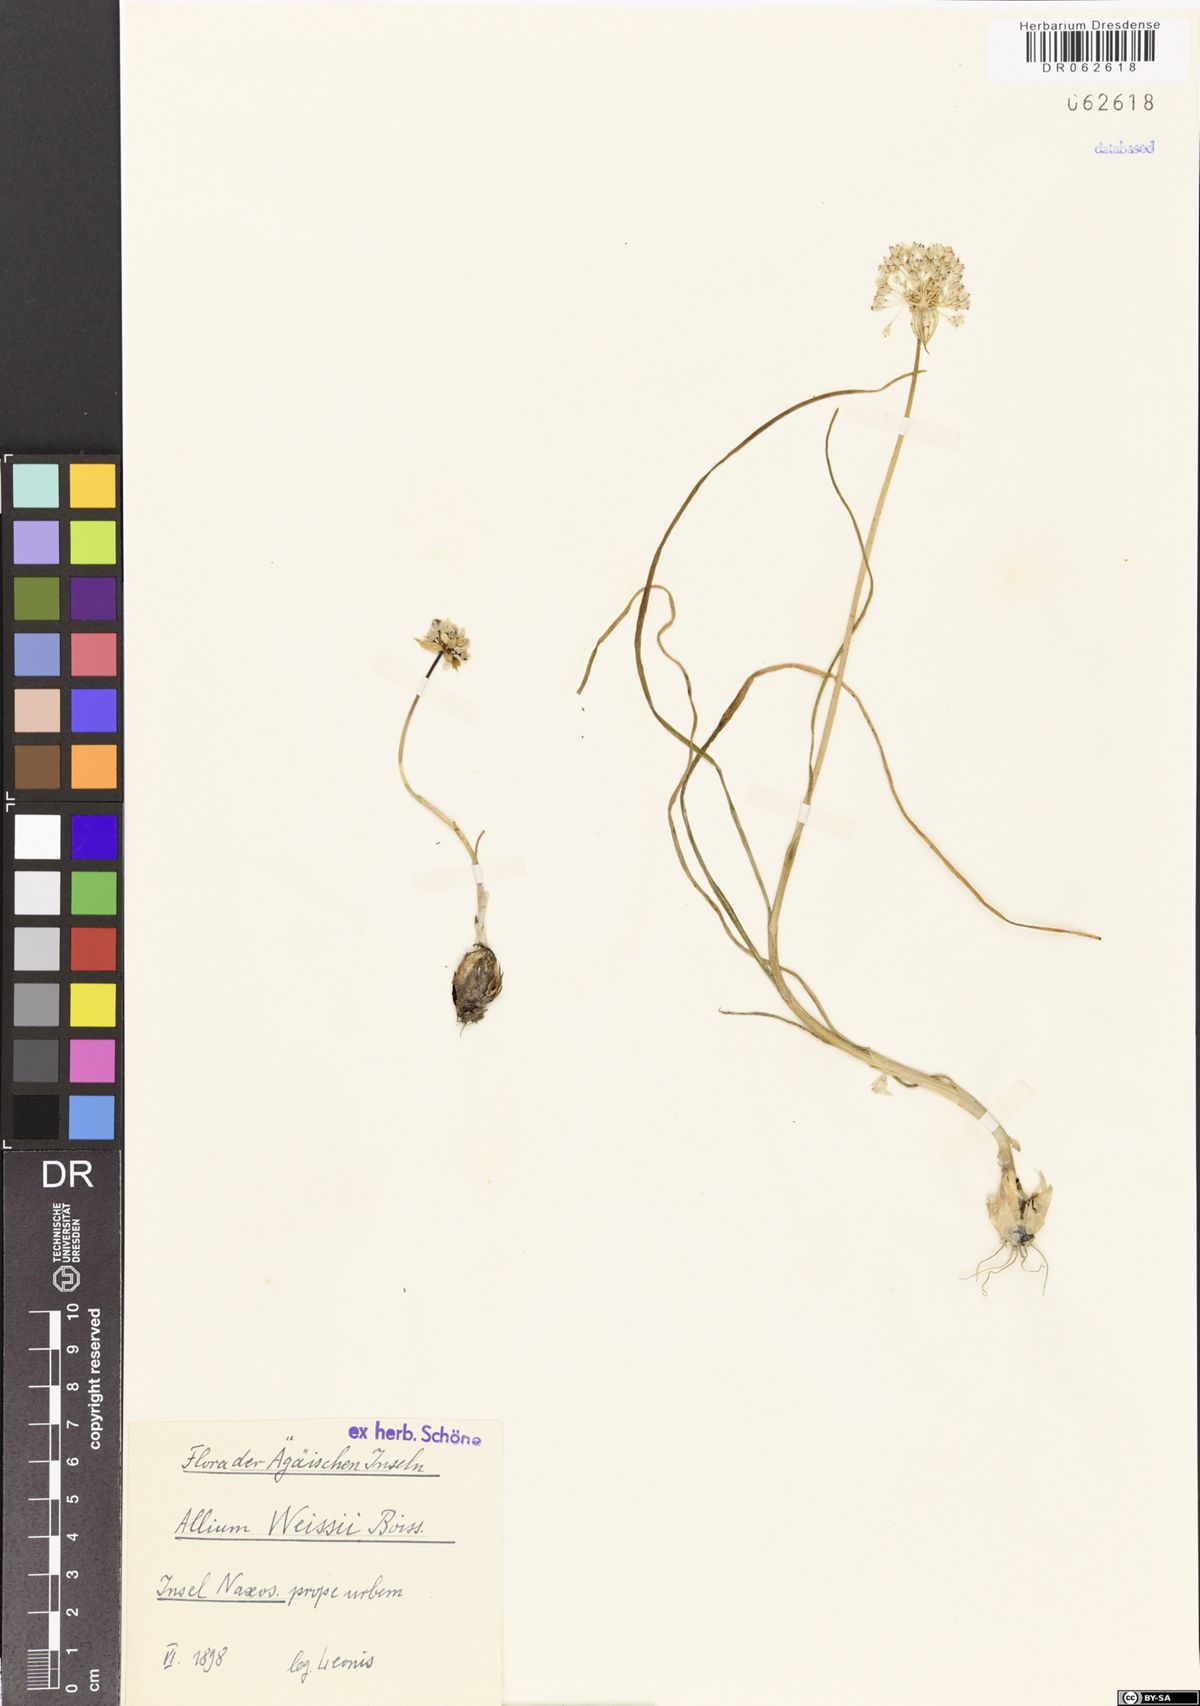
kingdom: Plantae
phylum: Tracheophyta
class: Liliopsida
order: Asparagales
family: Amaryllidaceae
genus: Allium
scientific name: Allium staticiforme
